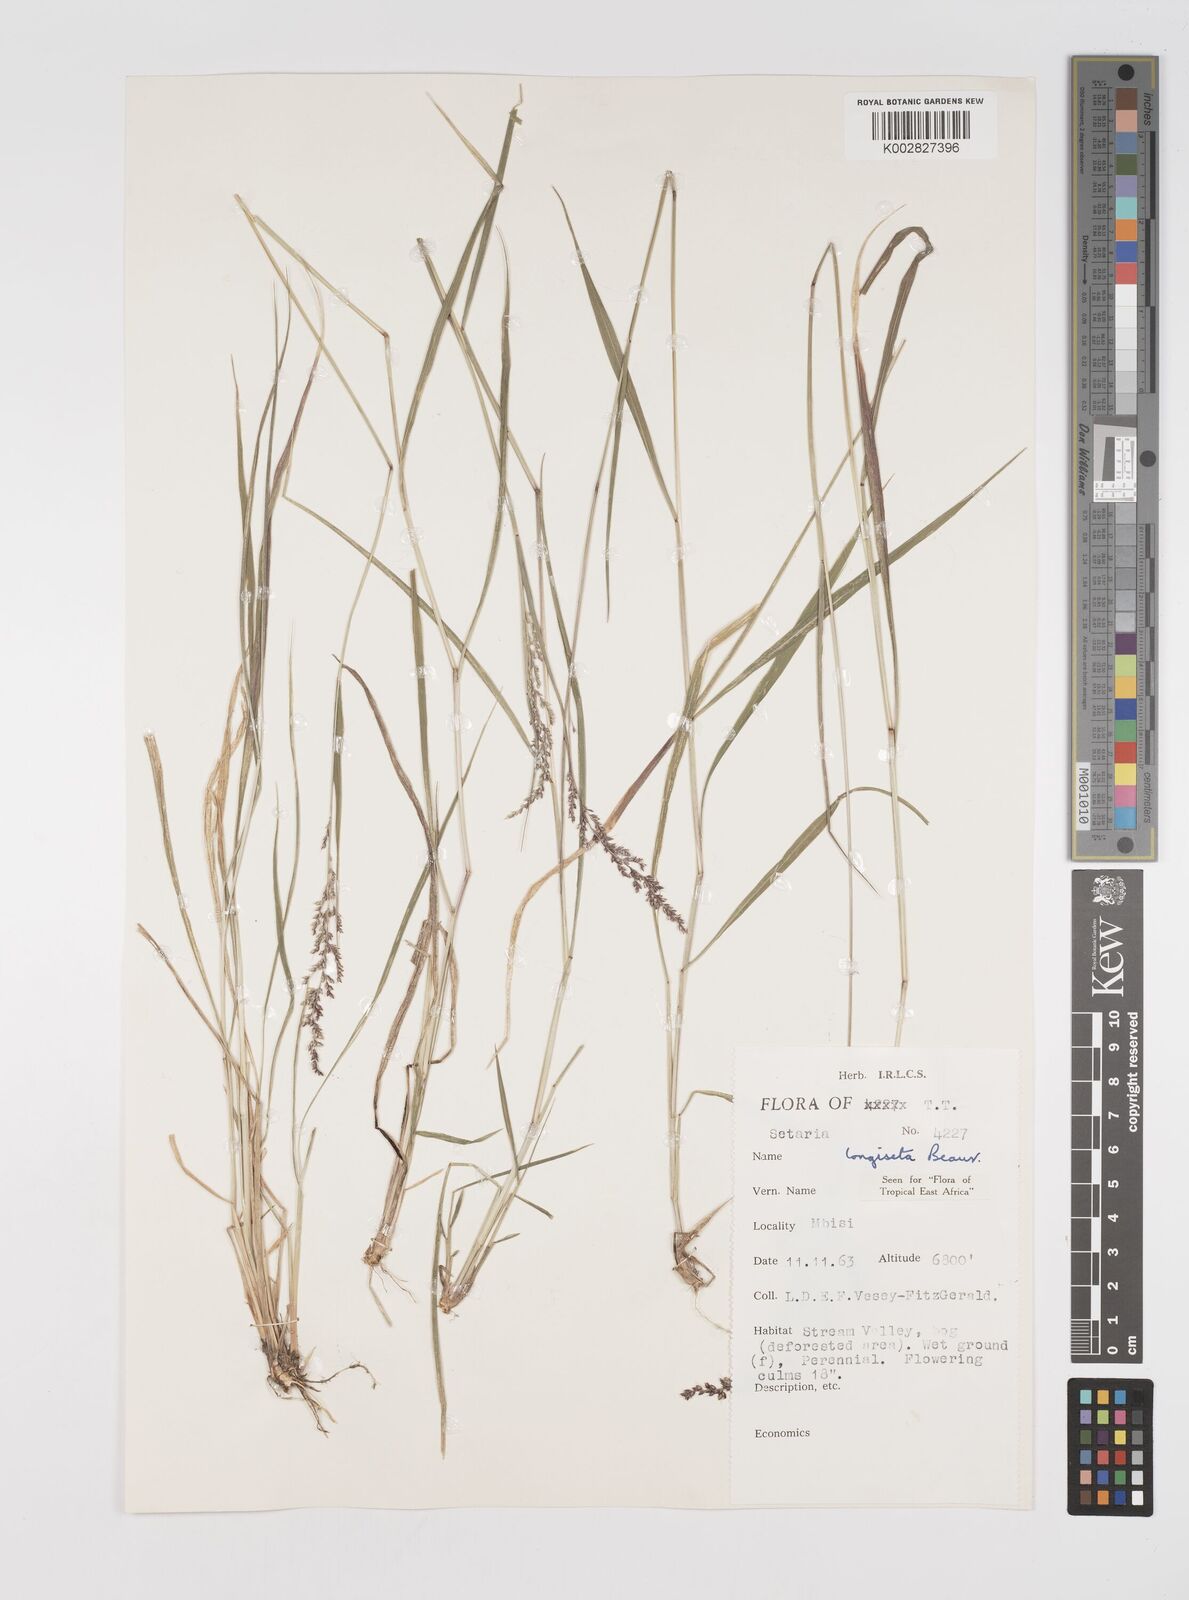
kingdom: Plantae
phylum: Tracheophyta
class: Liliopsida
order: Poales
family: Poaceae
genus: Setaria
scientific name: Setaria longiseta
